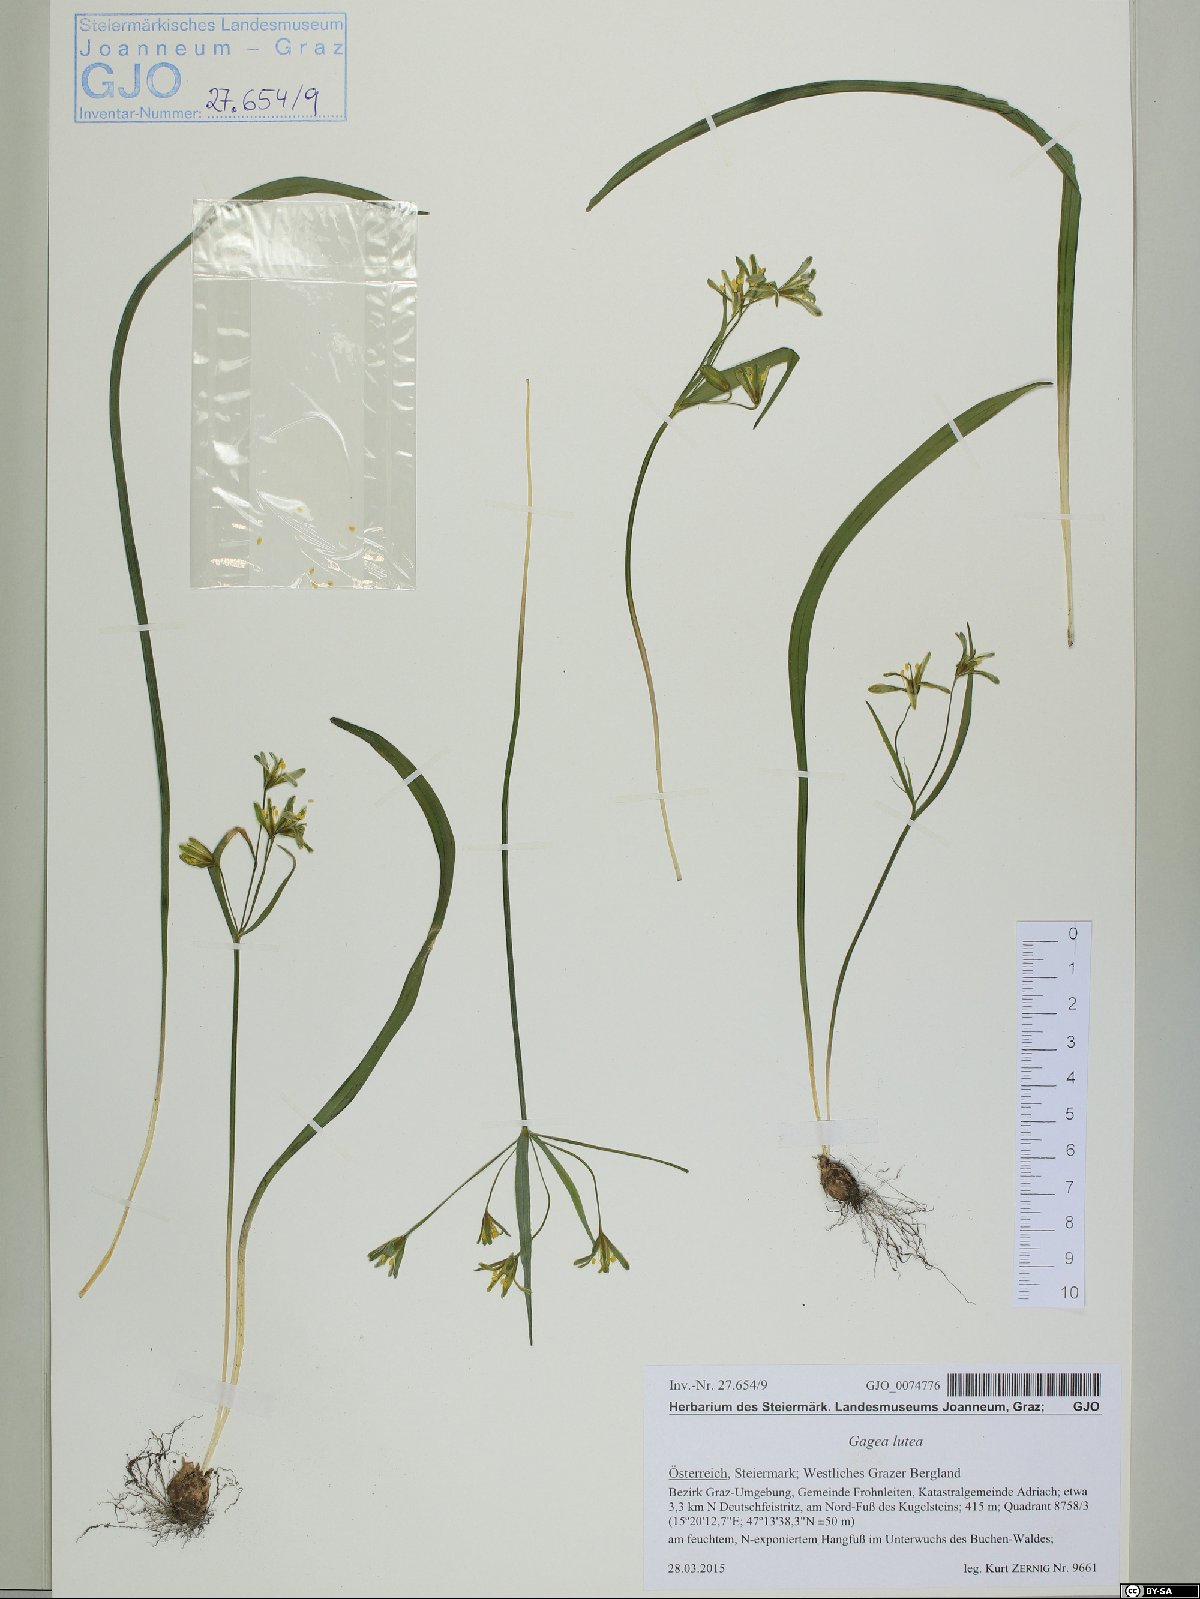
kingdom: Plantae
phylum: Tracheophyta
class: Liliopsida
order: Liliales
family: Liliaceae
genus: Gagea
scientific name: Gagea lutea
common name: Yellow star-of-bethlehem
